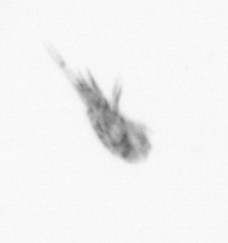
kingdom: Animalia
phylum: Arthropoda
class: Maxillopoda
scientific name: Maxillopoda
